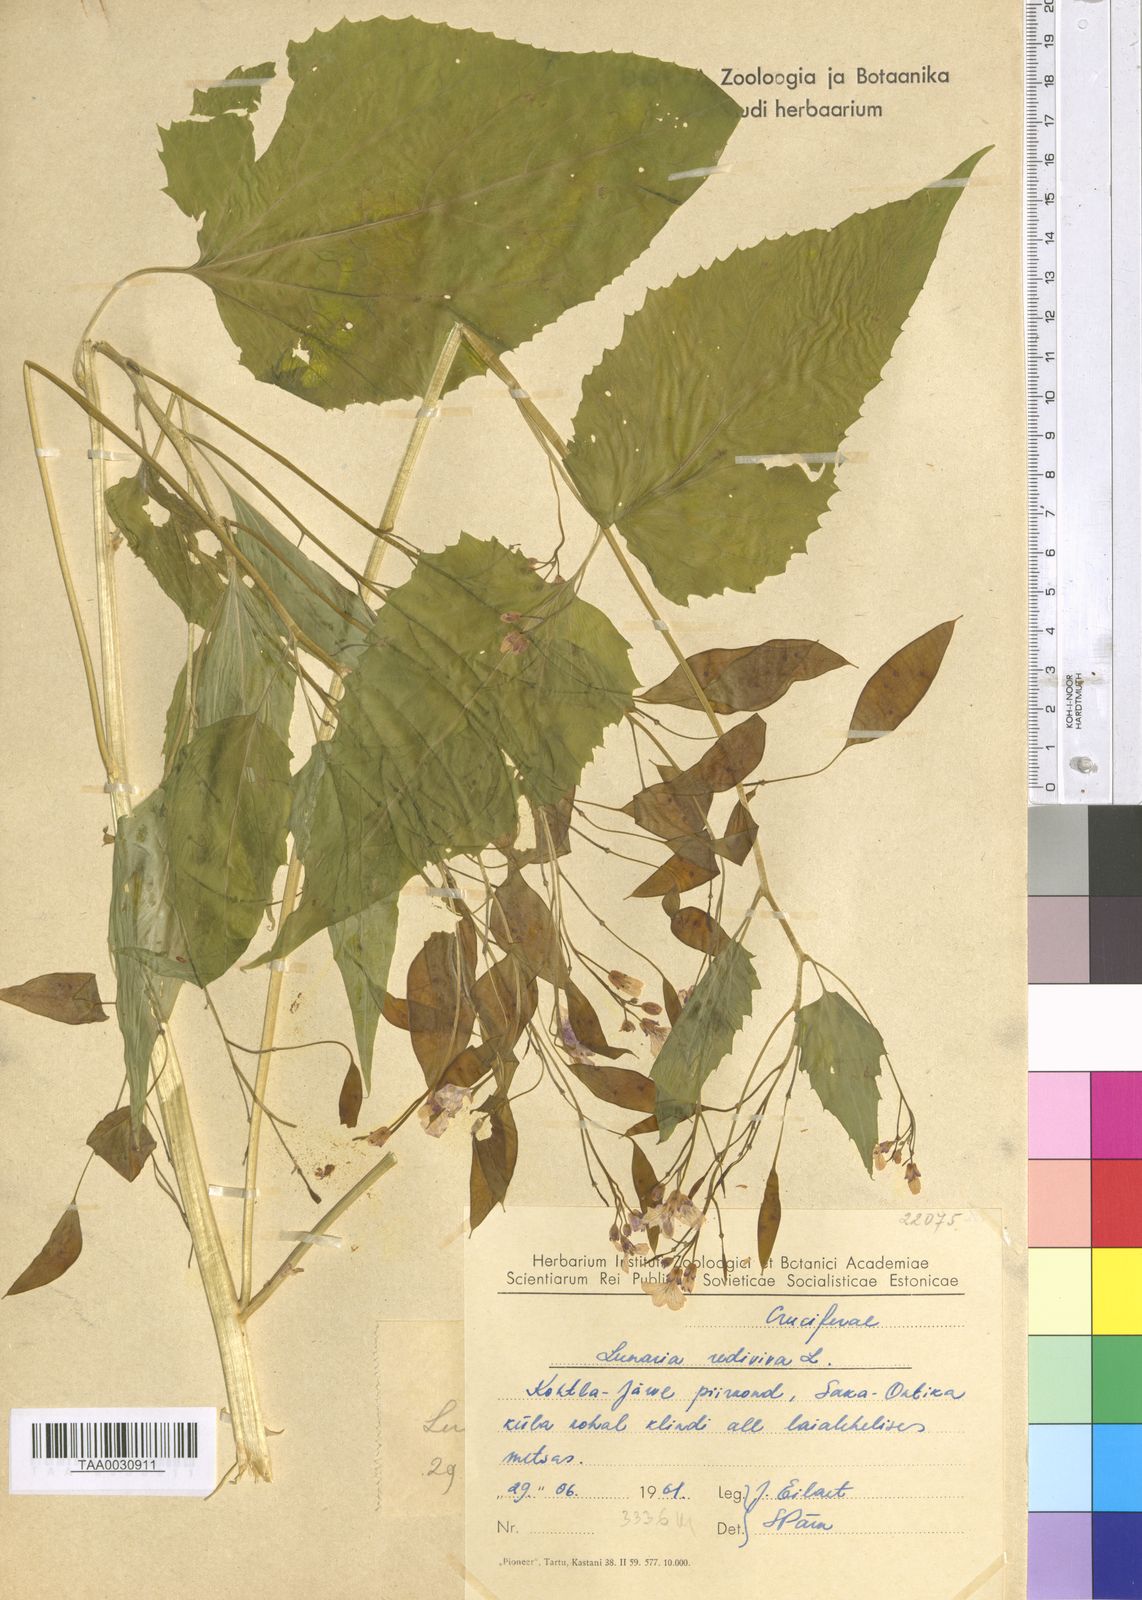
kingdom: Plantae
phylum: Tracheophyta
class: Magnoliopsida
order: Brassicales
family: Brassicaceae
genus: Lunaria
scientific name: Lunaria rediviva
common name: Perennial honesty
